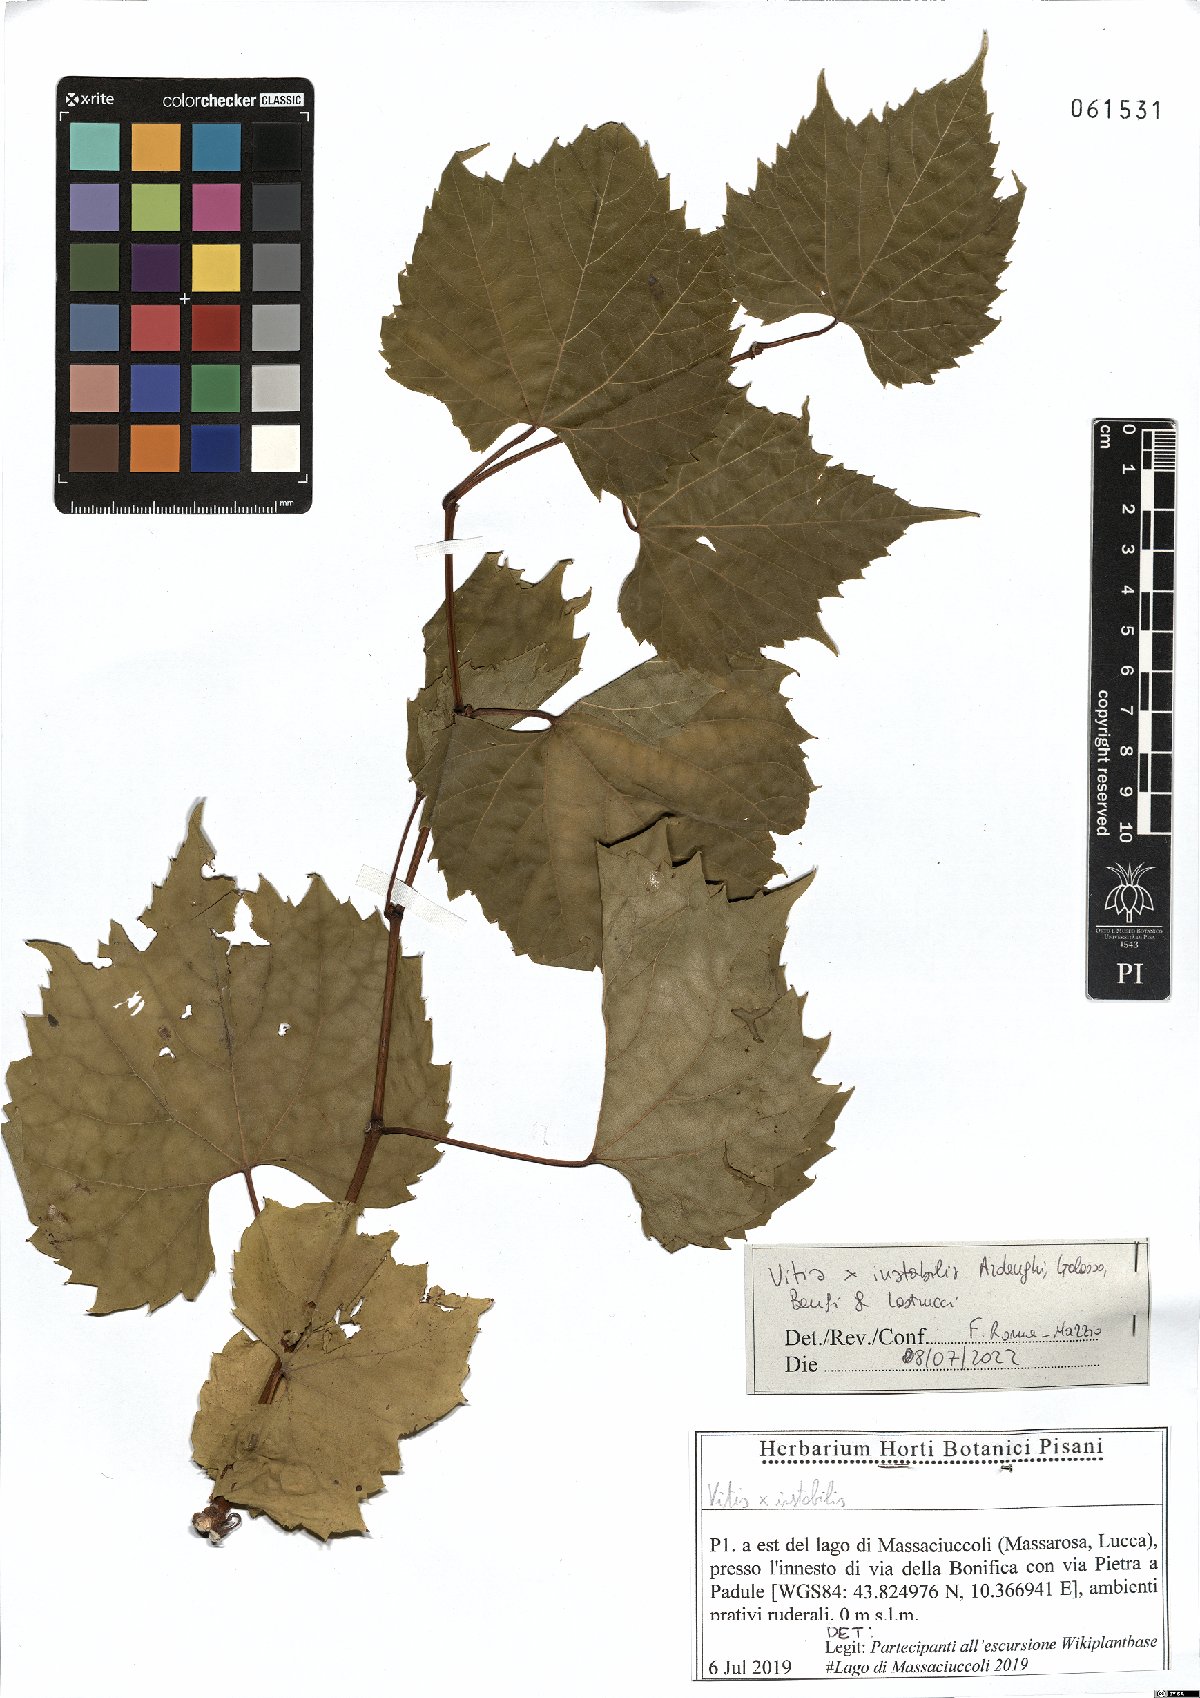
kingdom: Plantae
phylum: Tracheophyta
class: Magnoliopsida
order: Vitales
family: Vitaceae
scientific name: Vitaceae
